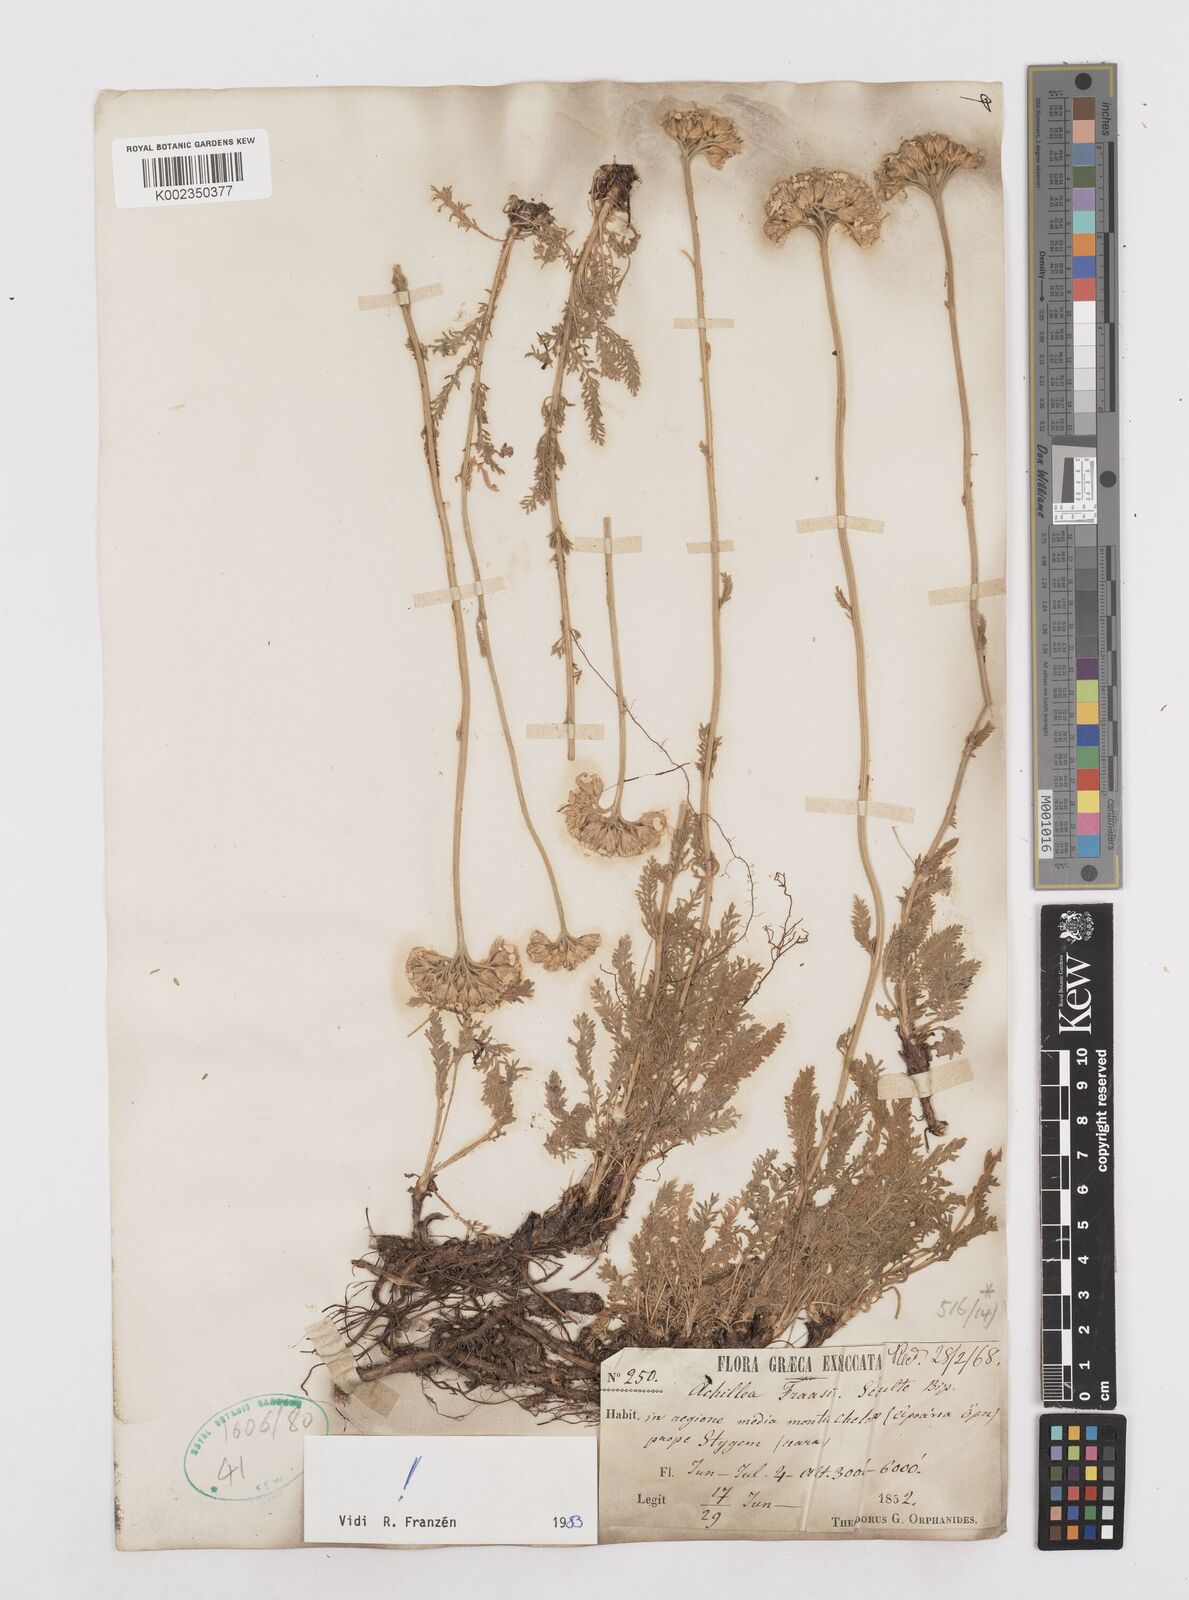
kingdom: Plantae
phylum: Tracheophyta
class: Magnoliopsida
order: Asterales
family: Asteraceae
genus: Achillea
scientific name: Achillea fraasii
